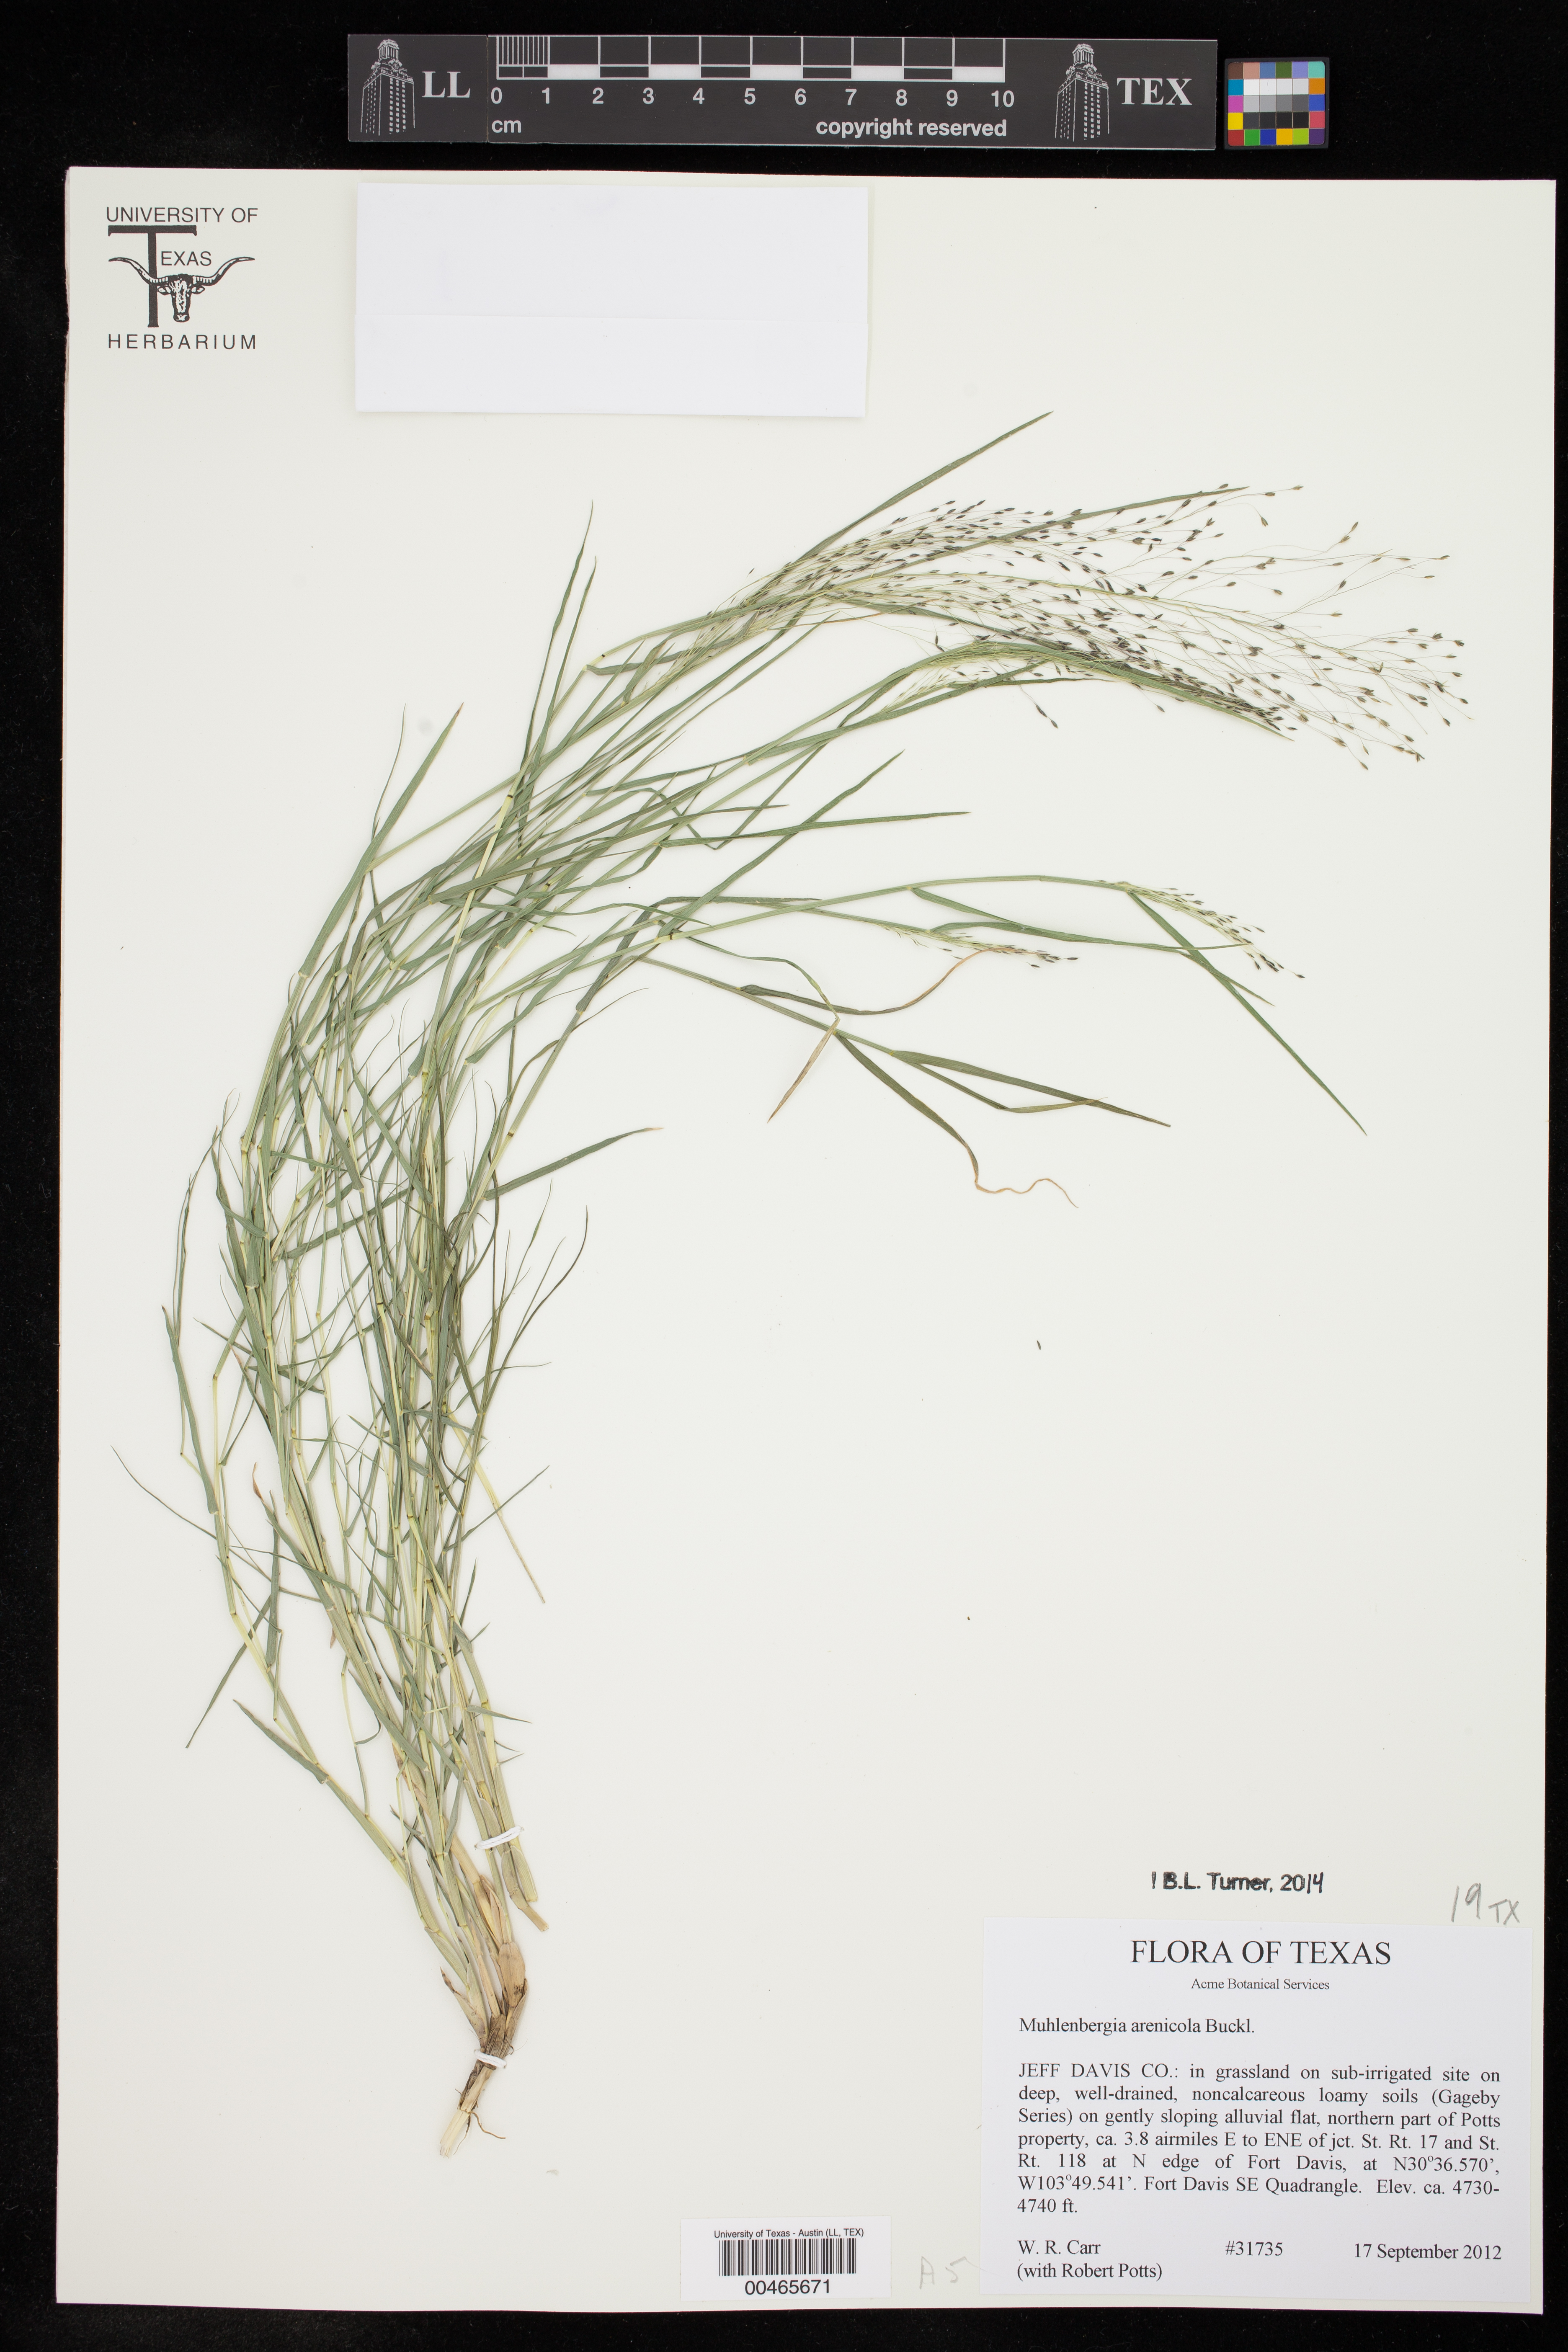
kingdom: Plantae
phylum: Tracheophyta
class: Liliopsida
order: Poales
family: Poaceae
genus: Muhlenbergia
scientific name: Muhlenbergia arenicola
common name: Sand muhly
